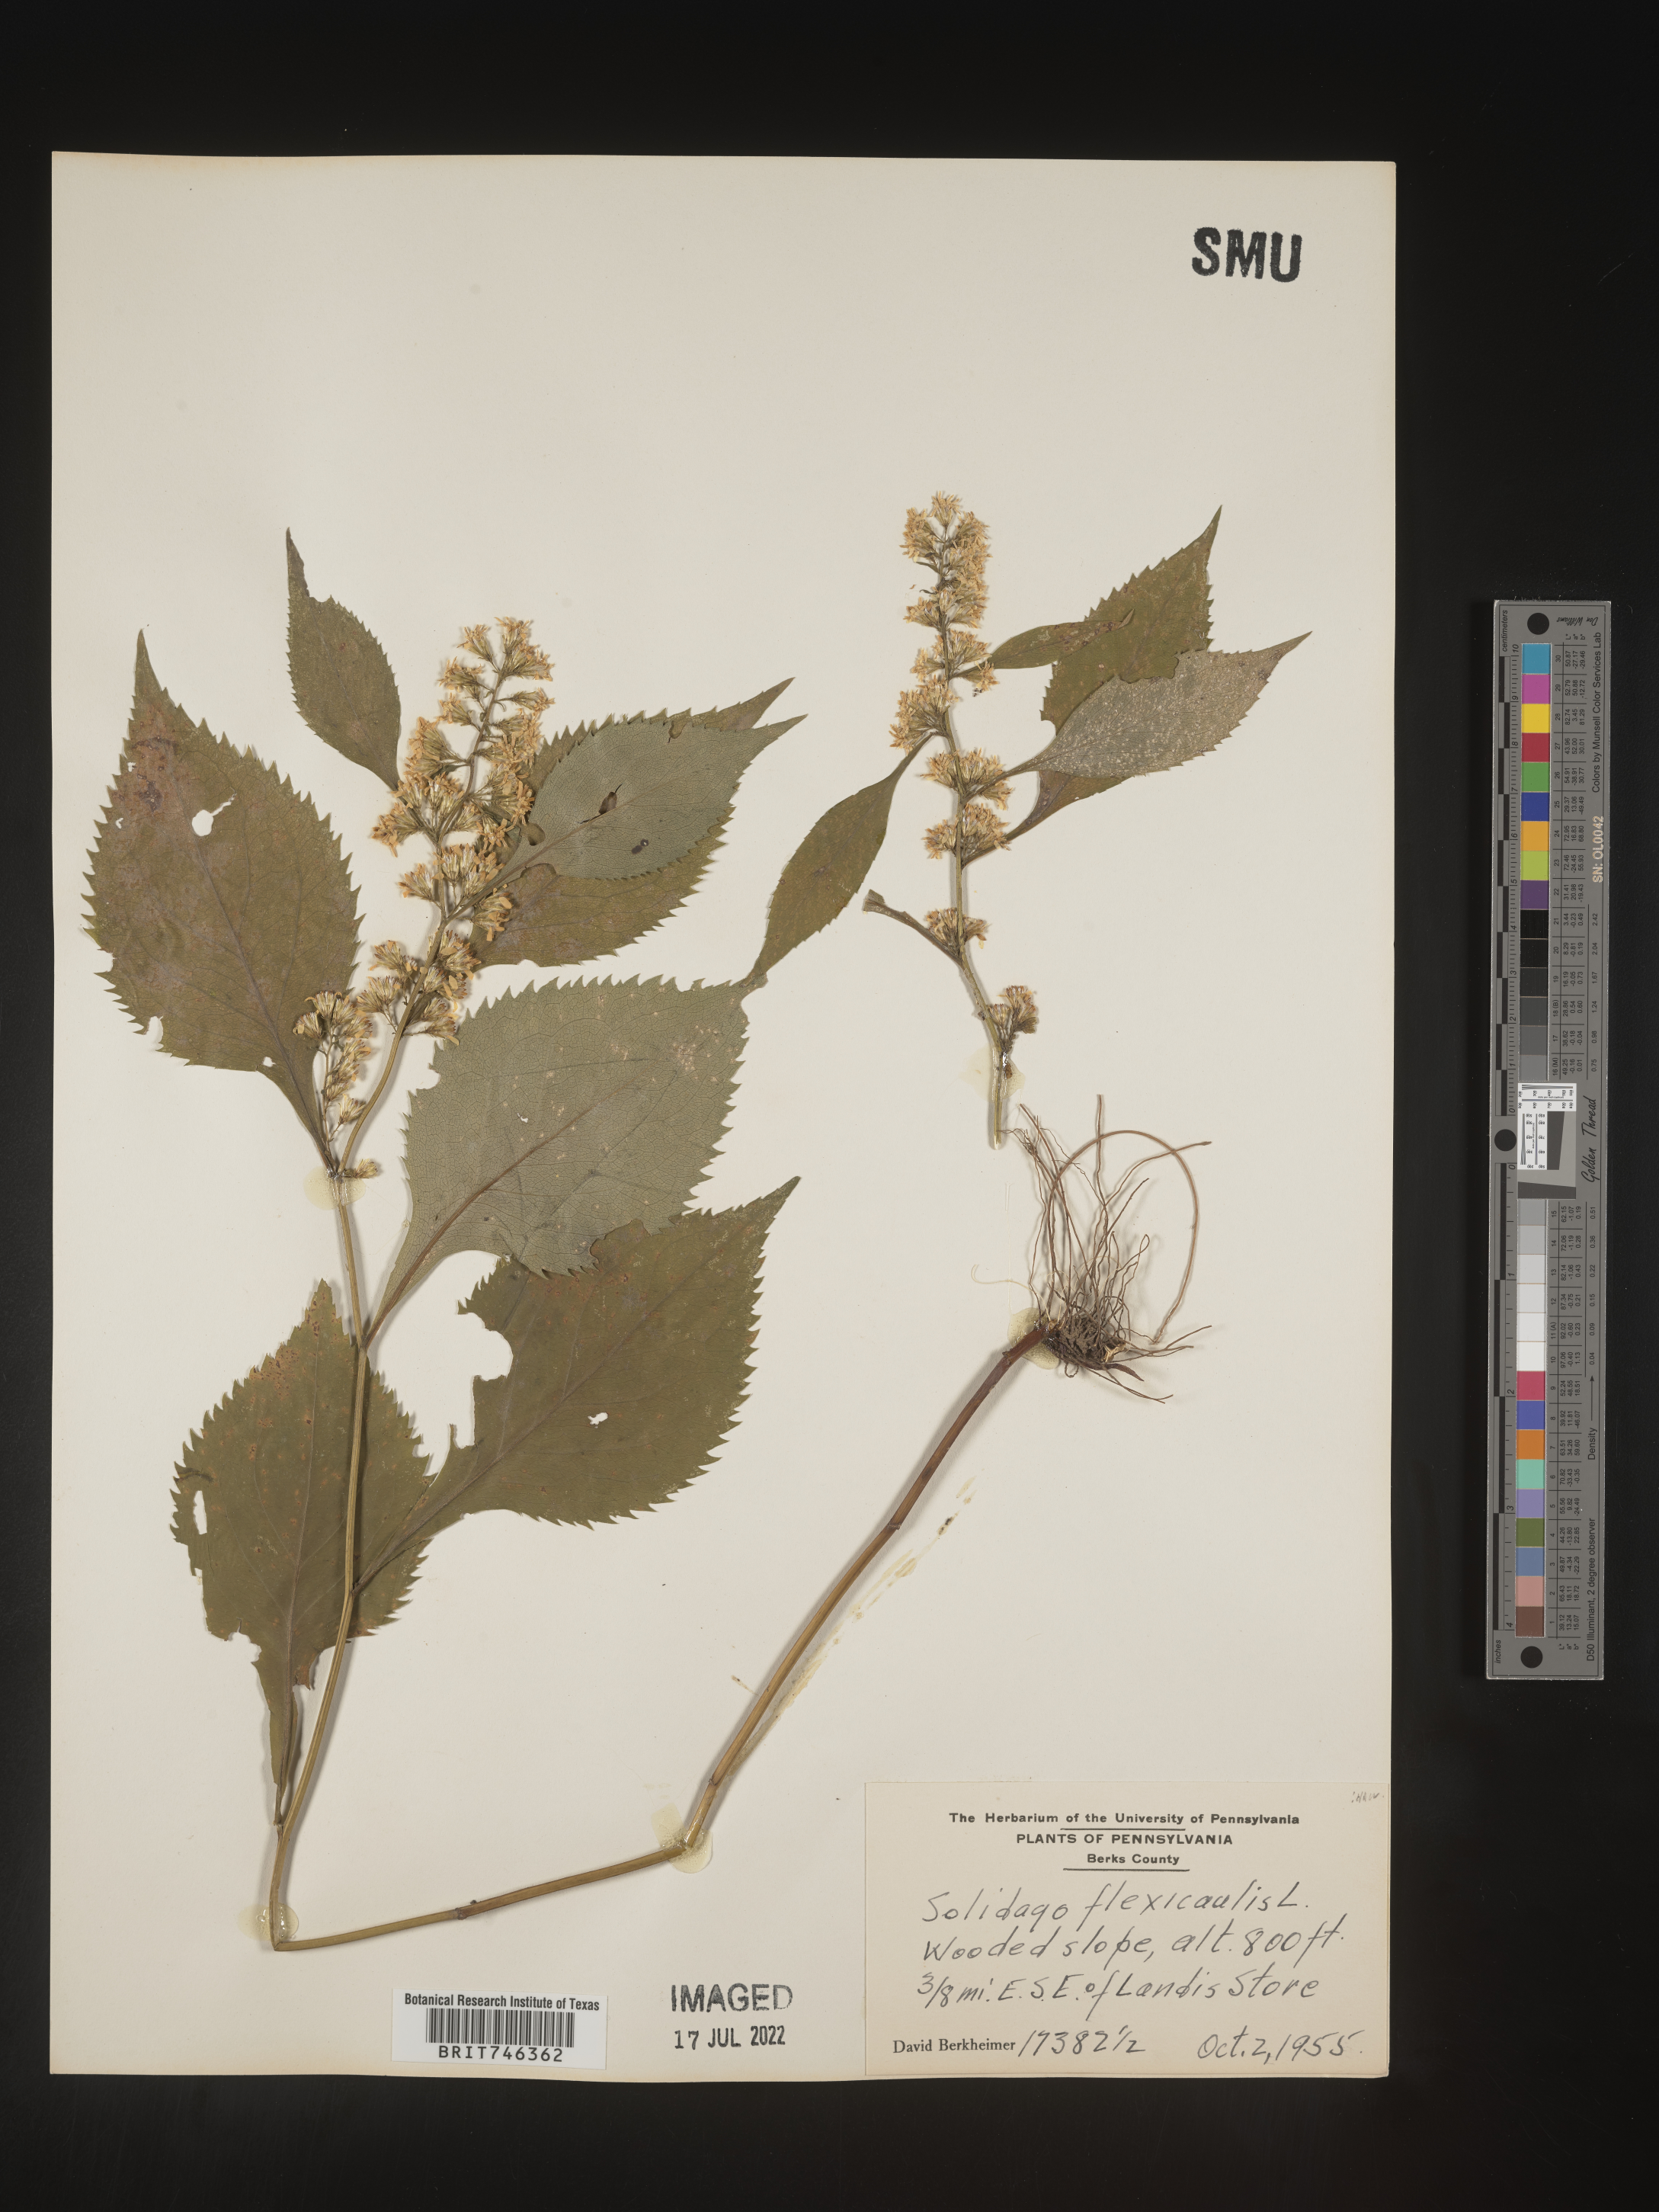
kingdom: Plantae
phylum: Tracheophyta
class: Magnoliopsida
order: Asterales
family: Asteraceae
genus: Solidago
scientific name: Solidago flexicaulis
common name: Zig-zag goldenrod
